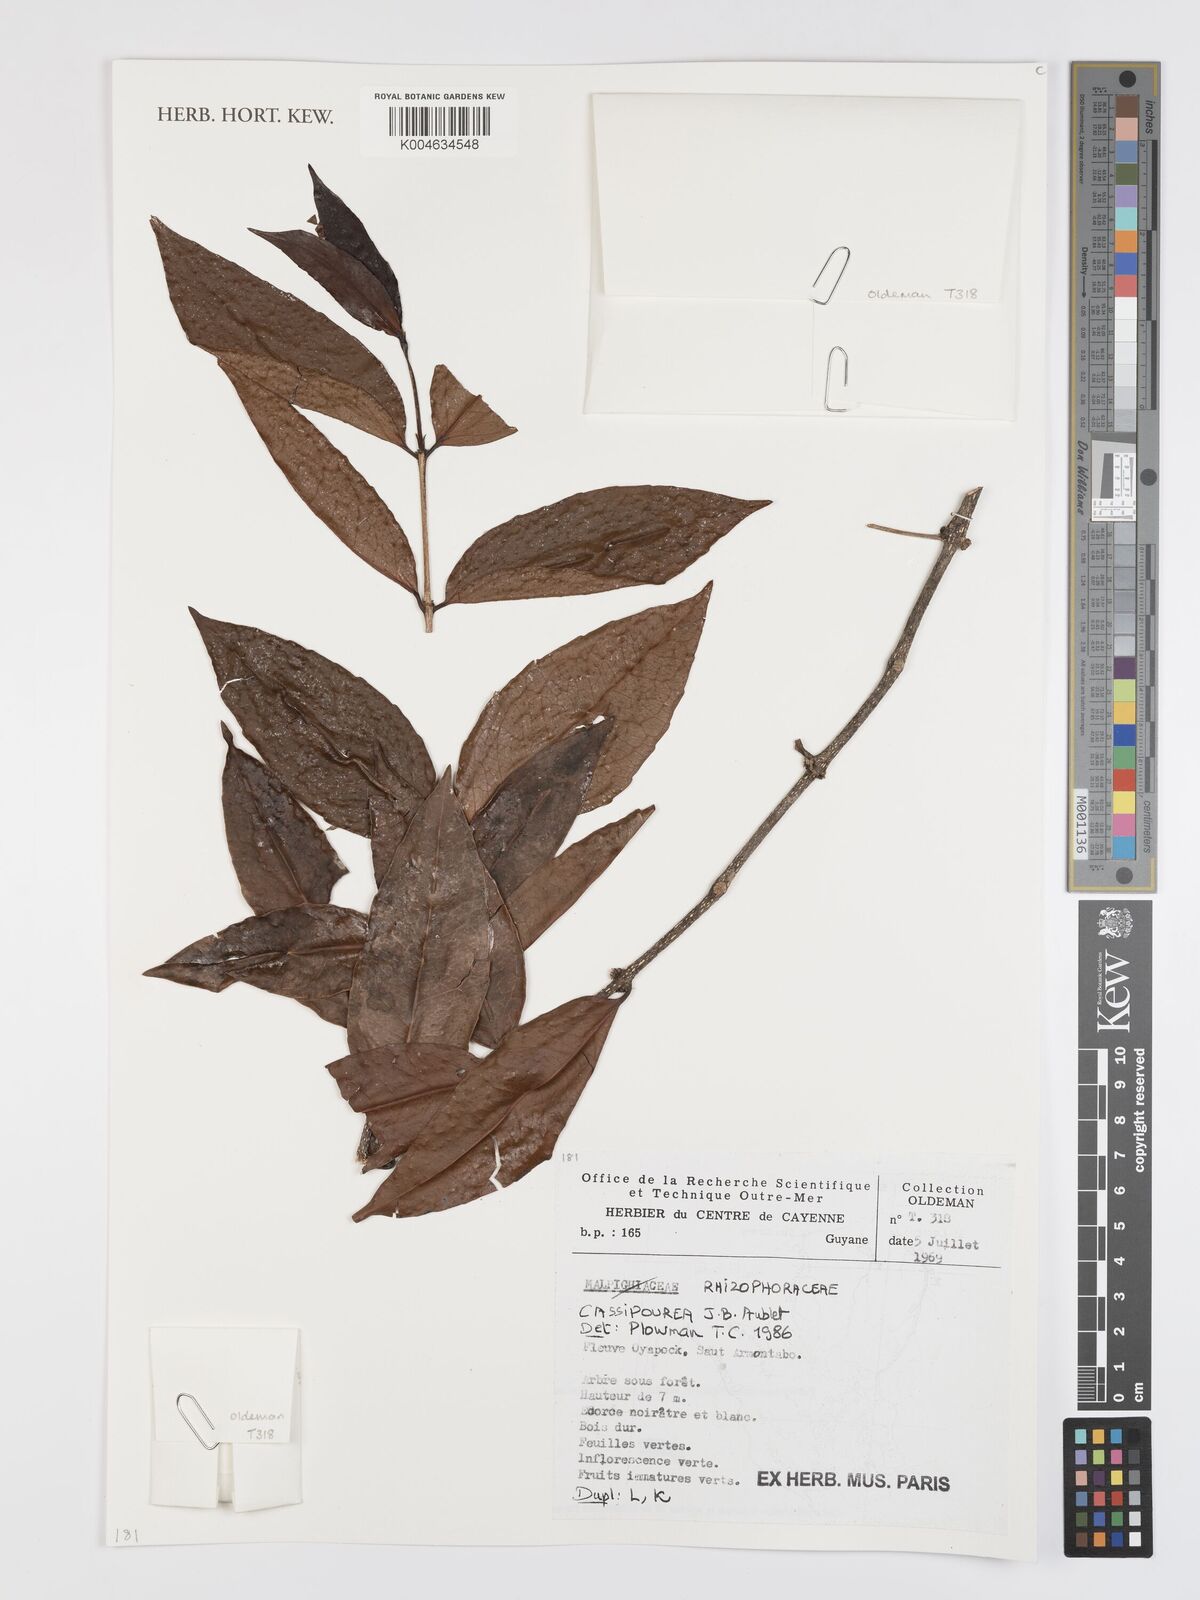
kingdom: Plantae
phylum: Tracheophyta
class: Magnoliopsida
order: Malpighiales
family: Rhizophoraceae
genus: Cassipourea
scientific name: Cassipourea
